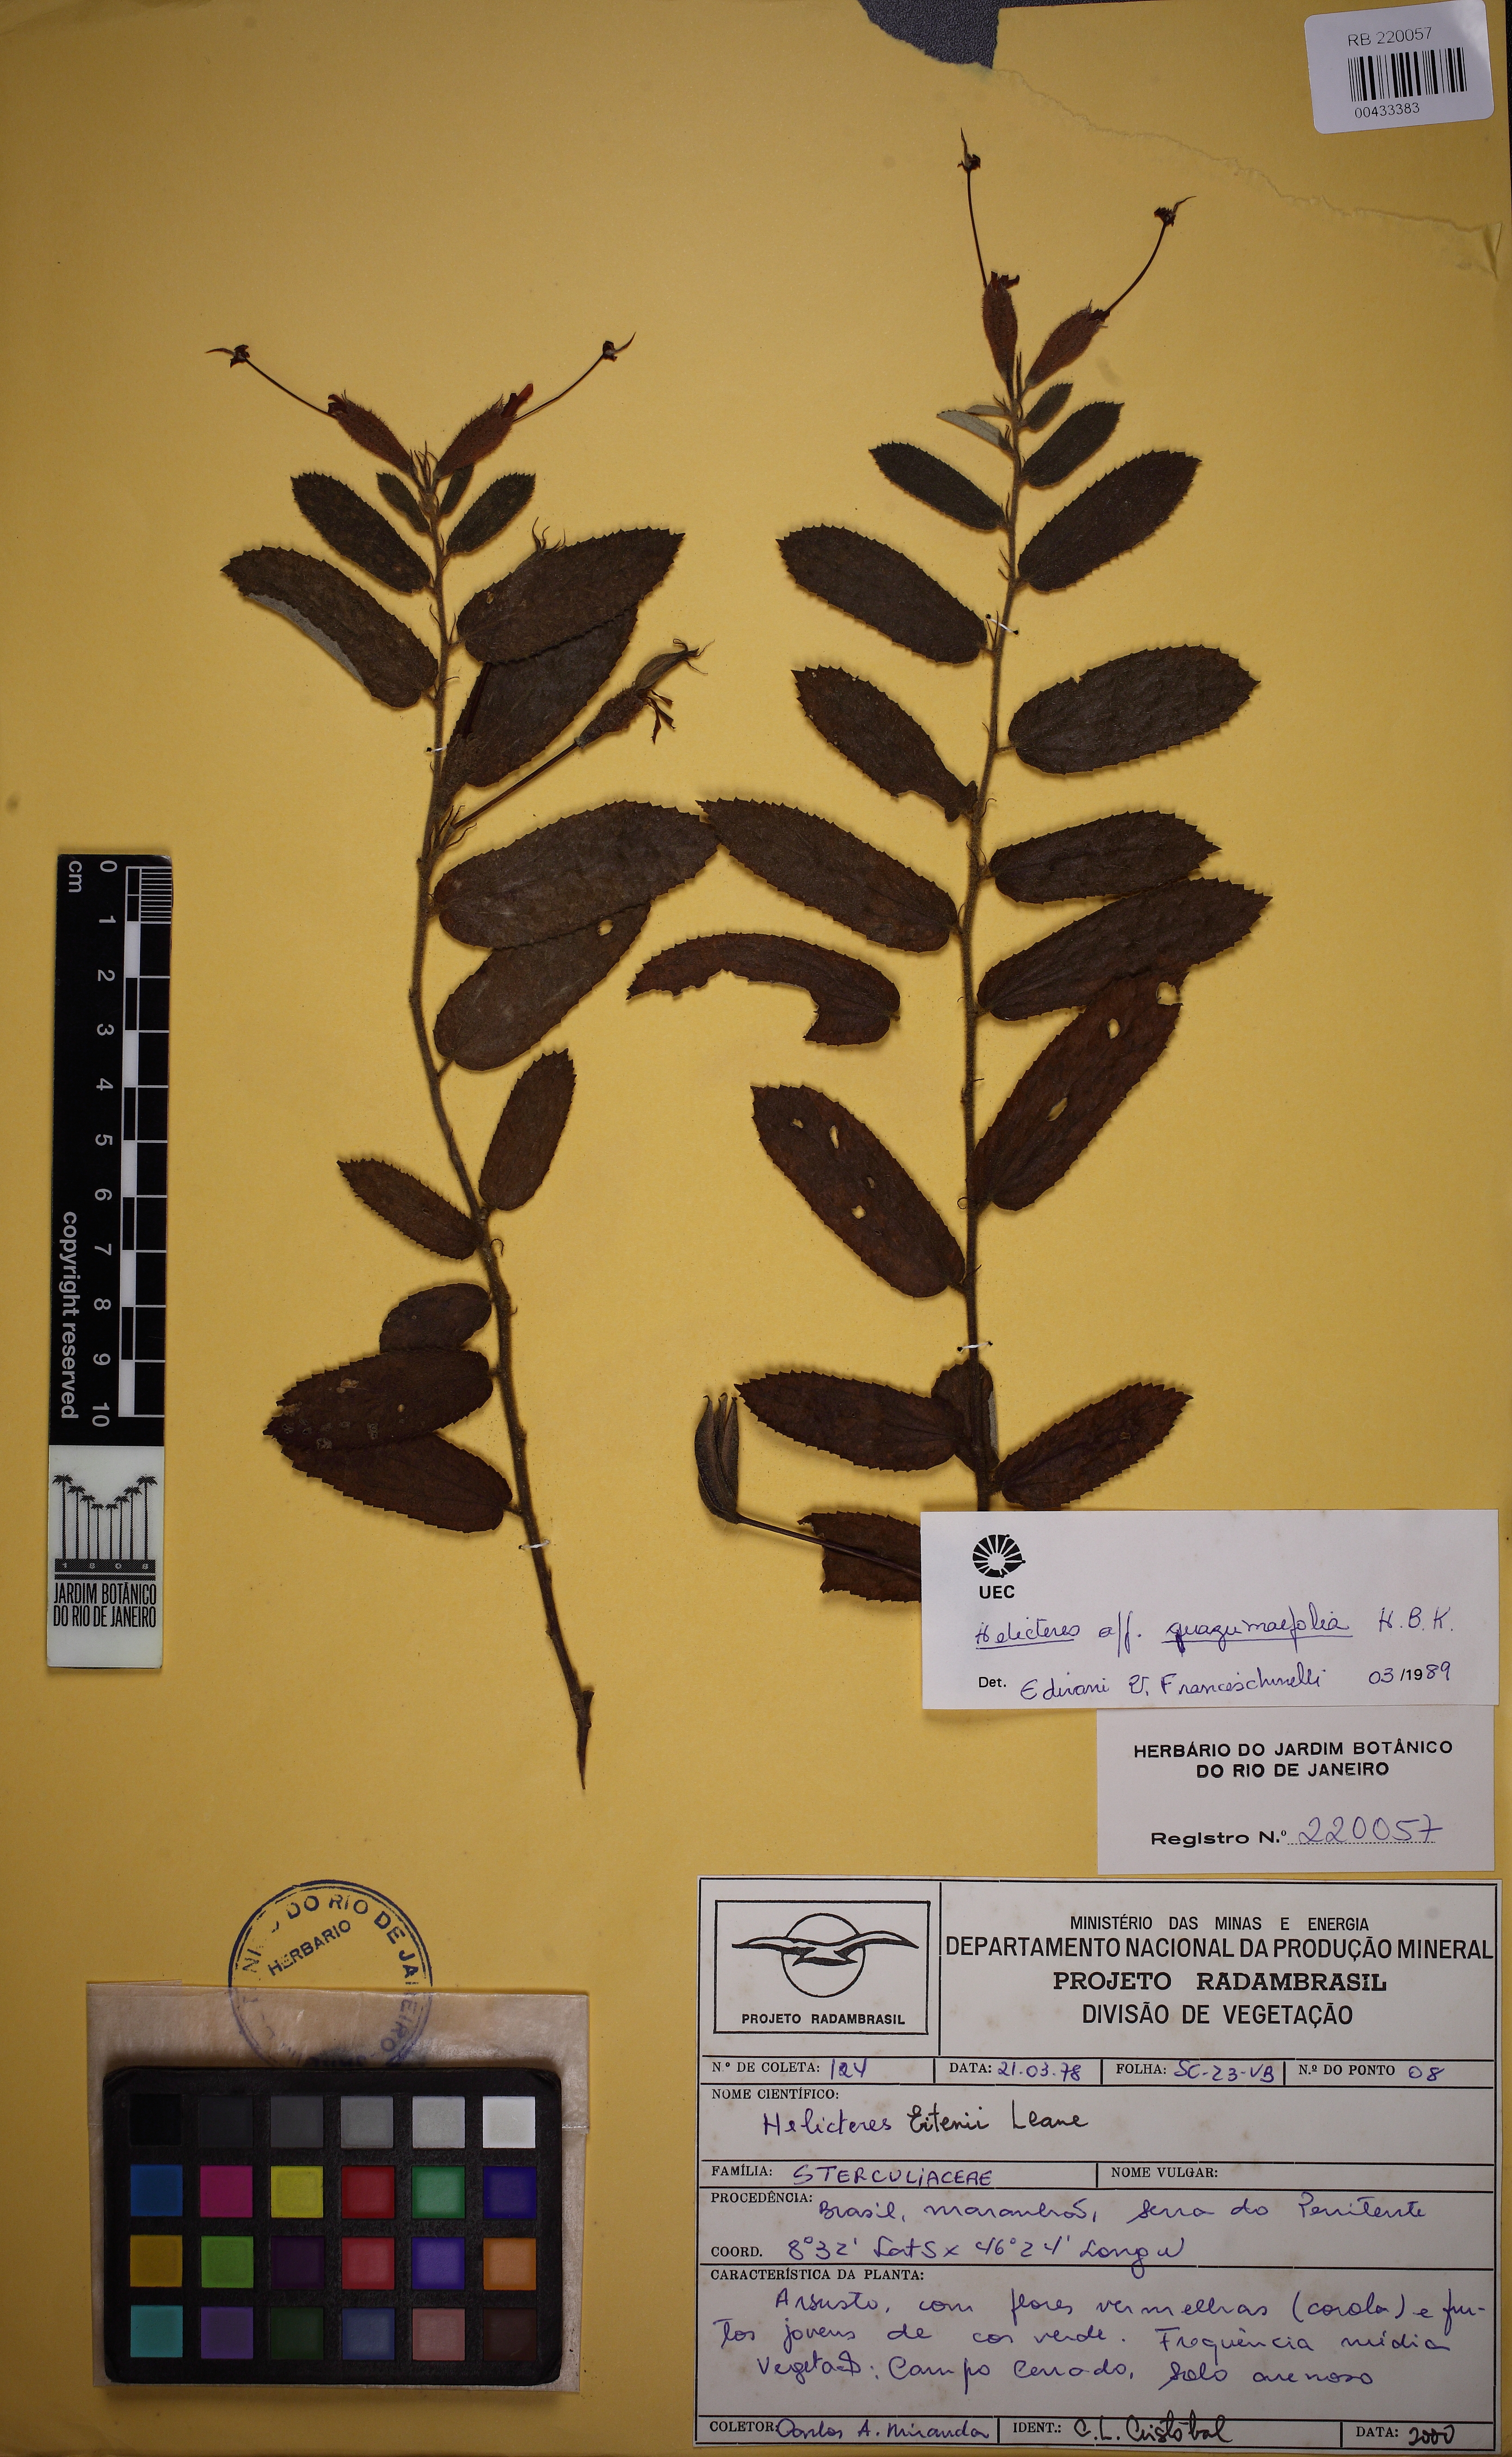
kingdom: Plantae
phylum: Tracheophyta
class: Magnoliopsida
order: Malvales
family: Malvaceae
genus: Helicteres
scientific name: Helicteres eitenii
